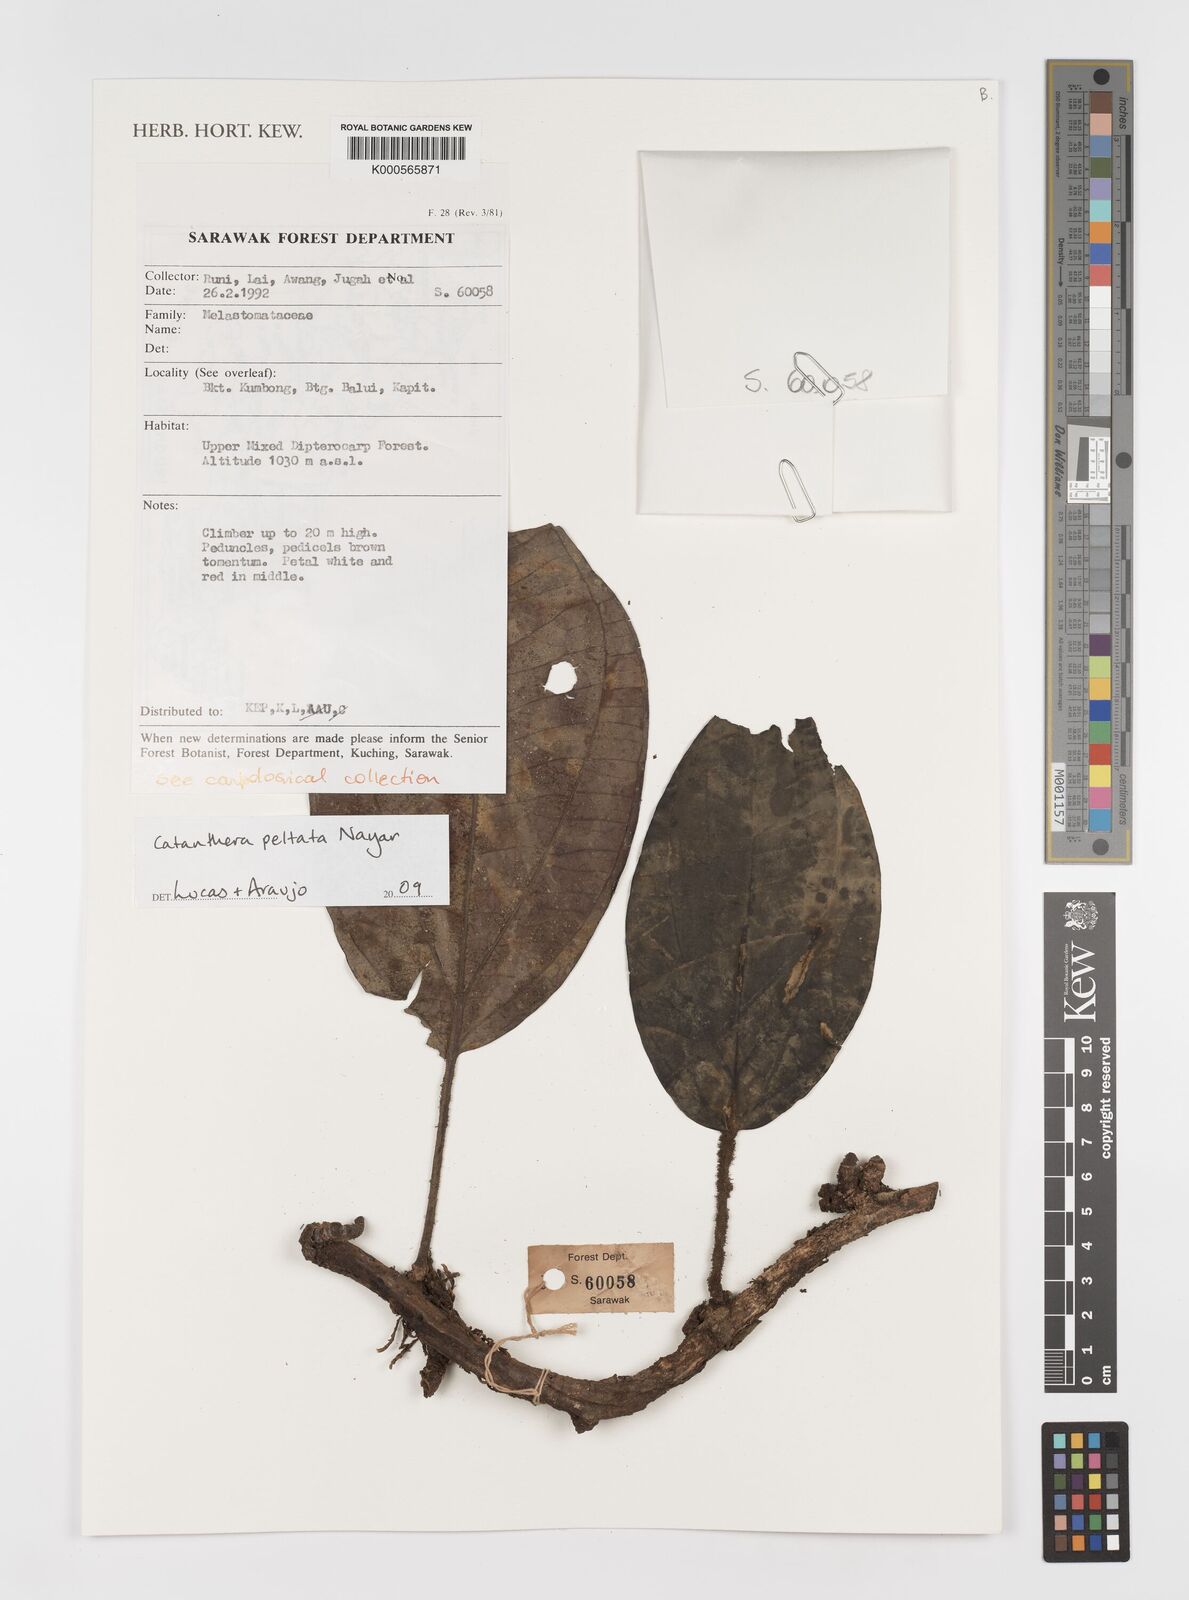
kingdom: Plantae
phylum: Tracheophyta
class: Magnoliopsida
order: Myrtales
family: Melastomataceae
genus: Catanthera
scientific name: Catanthera peltata
